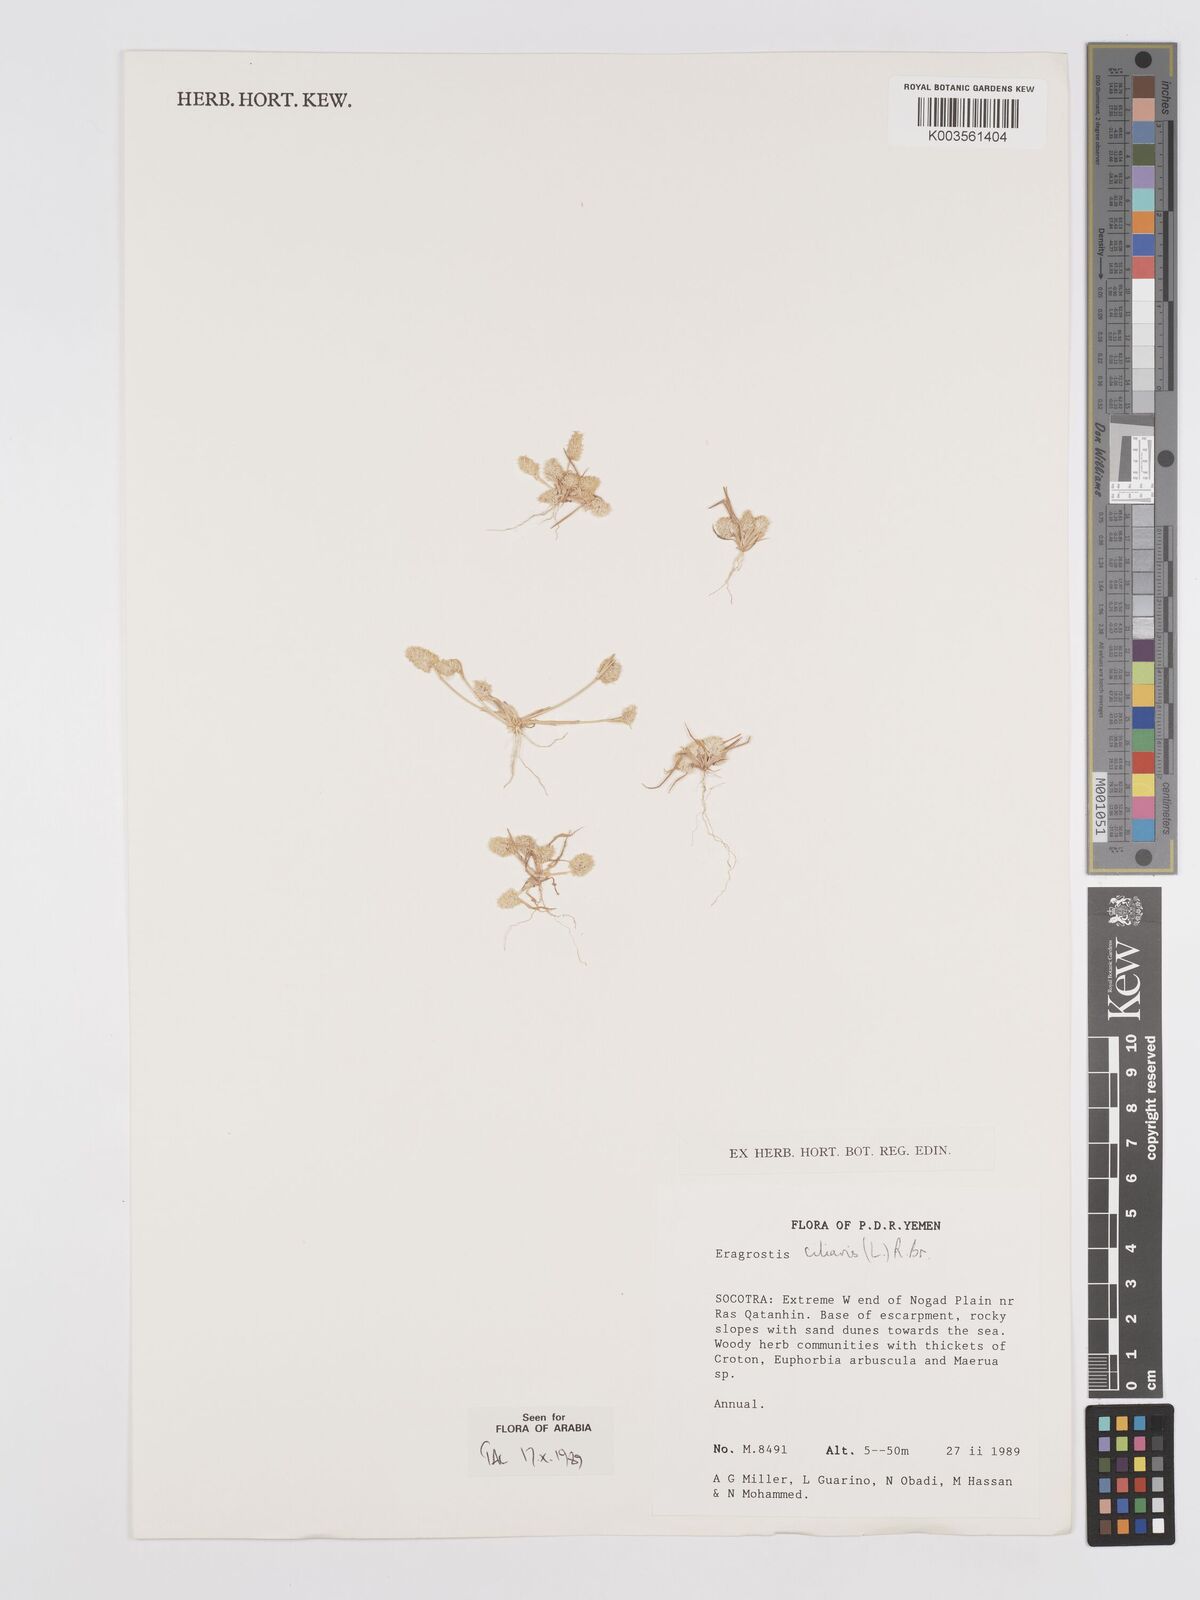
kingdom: Plantae
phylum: Tracheophyta
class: Liliopsida
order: Poales
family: Poaceae
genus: Eragrostis
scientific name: Eragrostis ciliaris
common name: Gophertail lovegrass
